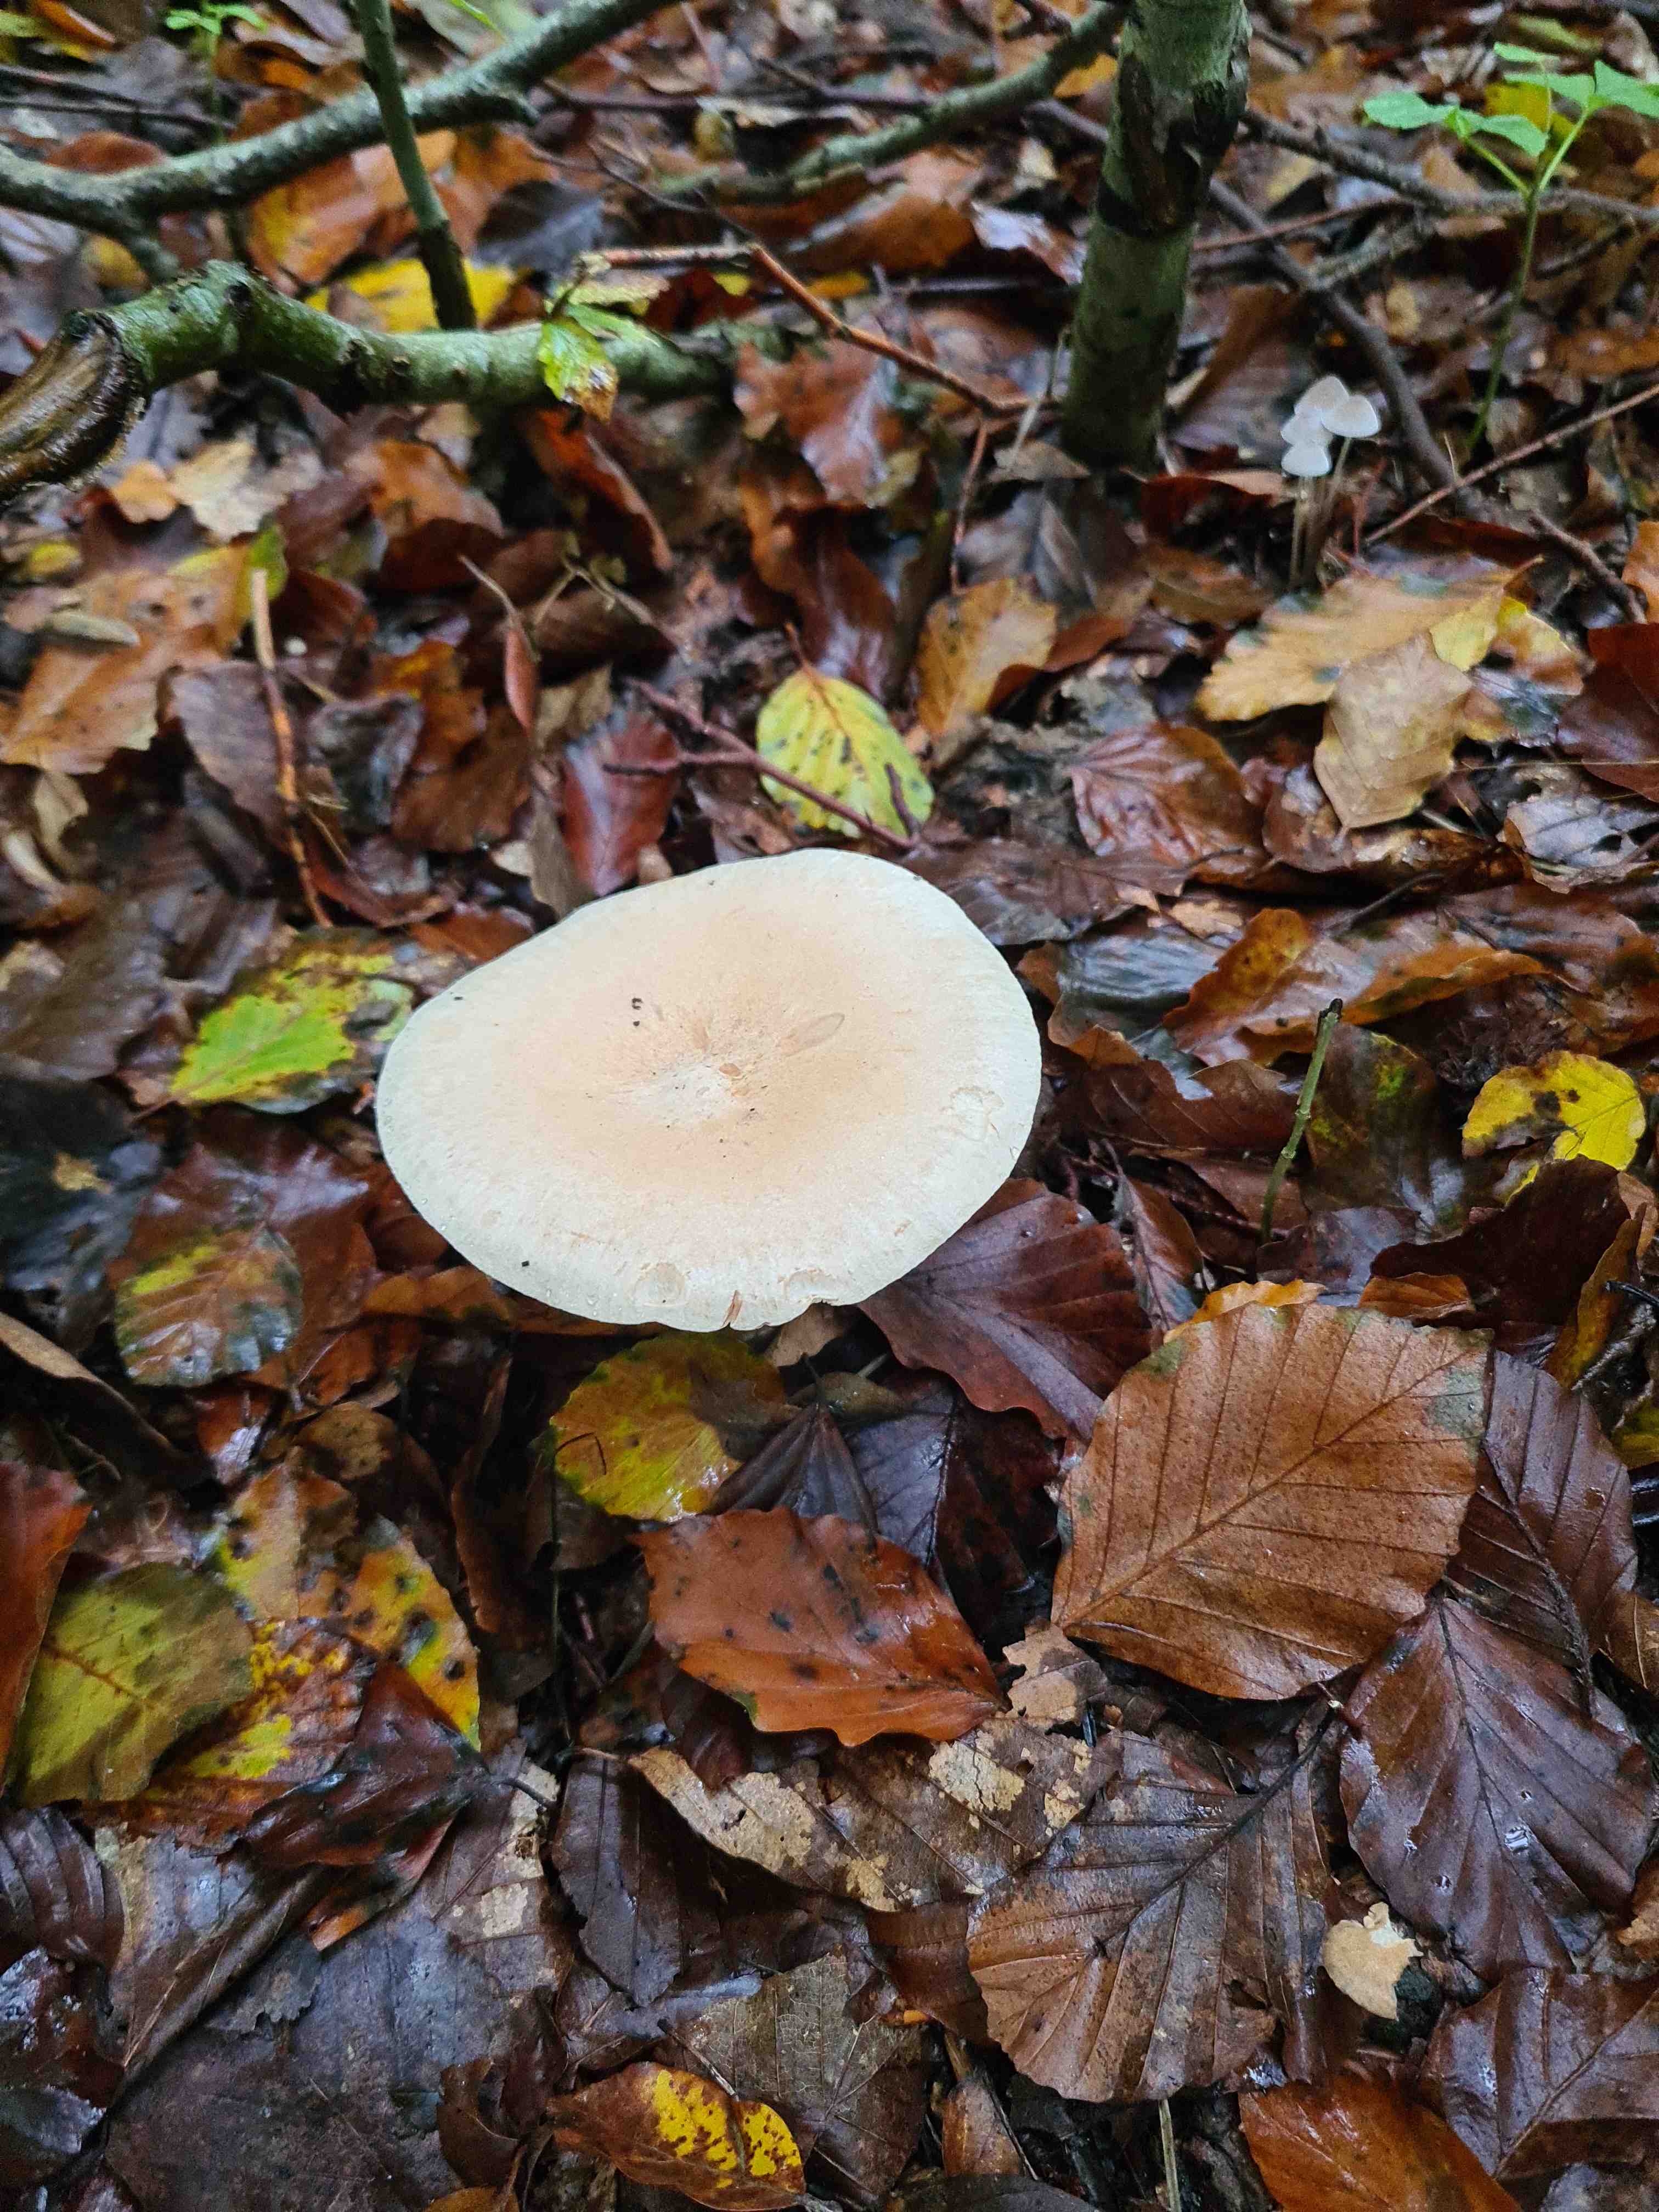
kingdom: Fungi
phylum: Basidiomycota
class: Agaricomycetes
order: Agaricales
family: Tricholomataceae
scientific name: Tricholomataceae
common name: ridderhatfamilien
